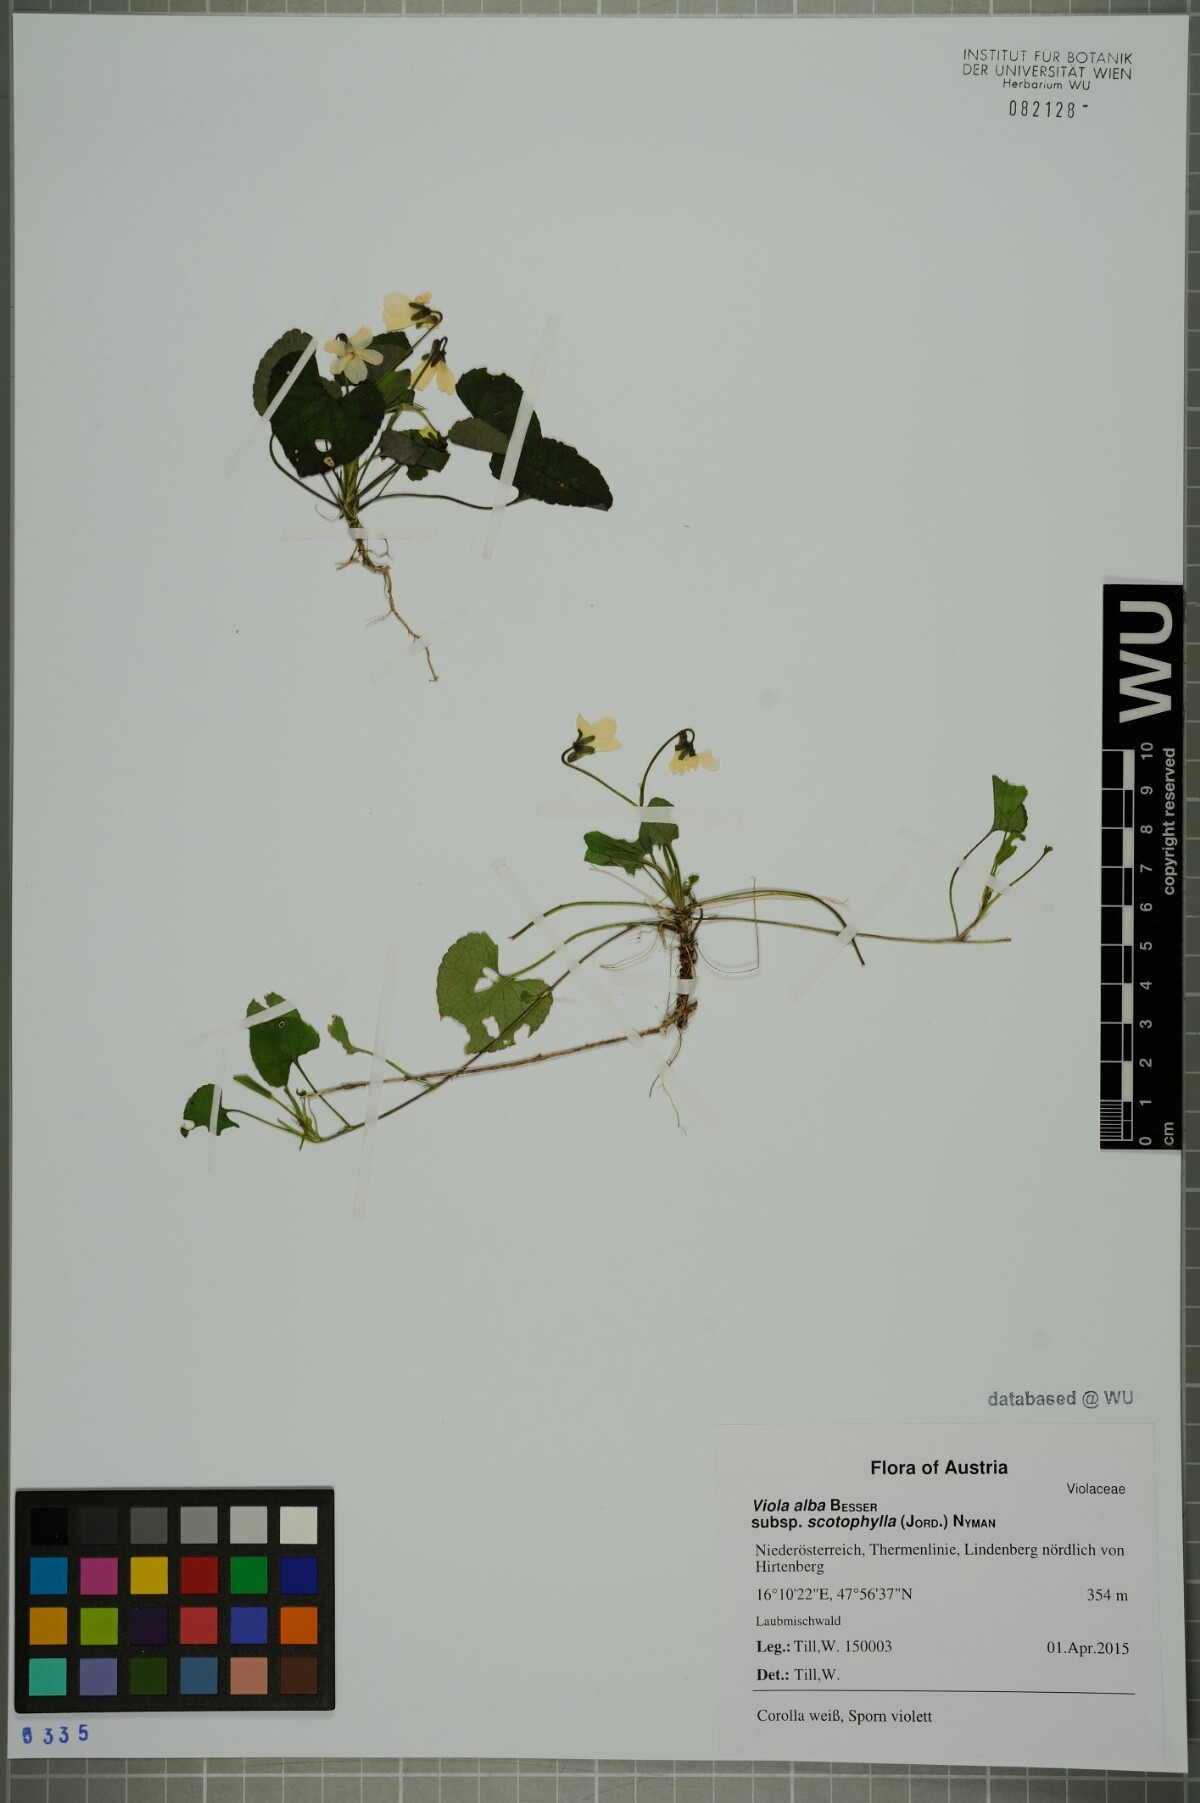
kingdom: Plantae
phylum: Tracheophyta
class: Magnoliopsida
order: Malpighiales
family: Violaceae
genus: Viola
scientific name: Viola alba
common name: White violet
